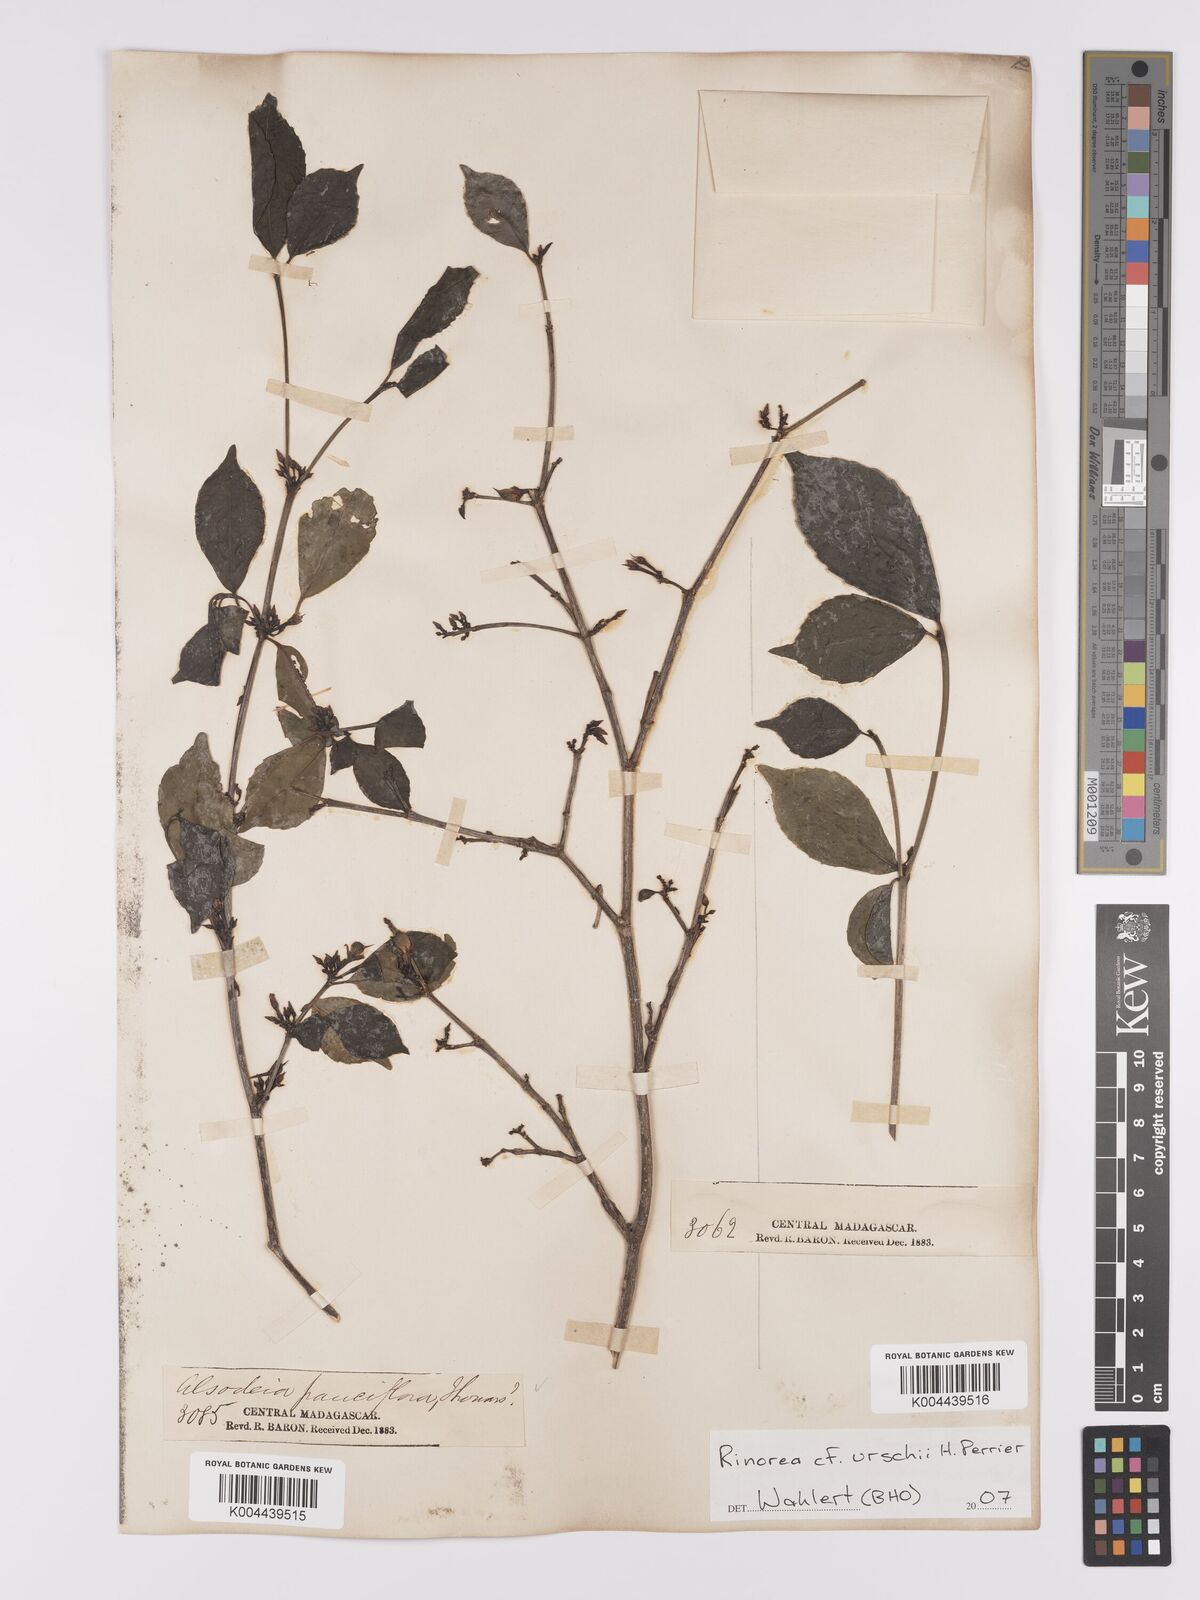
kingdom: Plantae
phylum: Tracheophyta
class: Magnoliopsida
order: Malpighiales
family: Violaceae
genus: Rinorea
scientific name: Rinorea urschii
